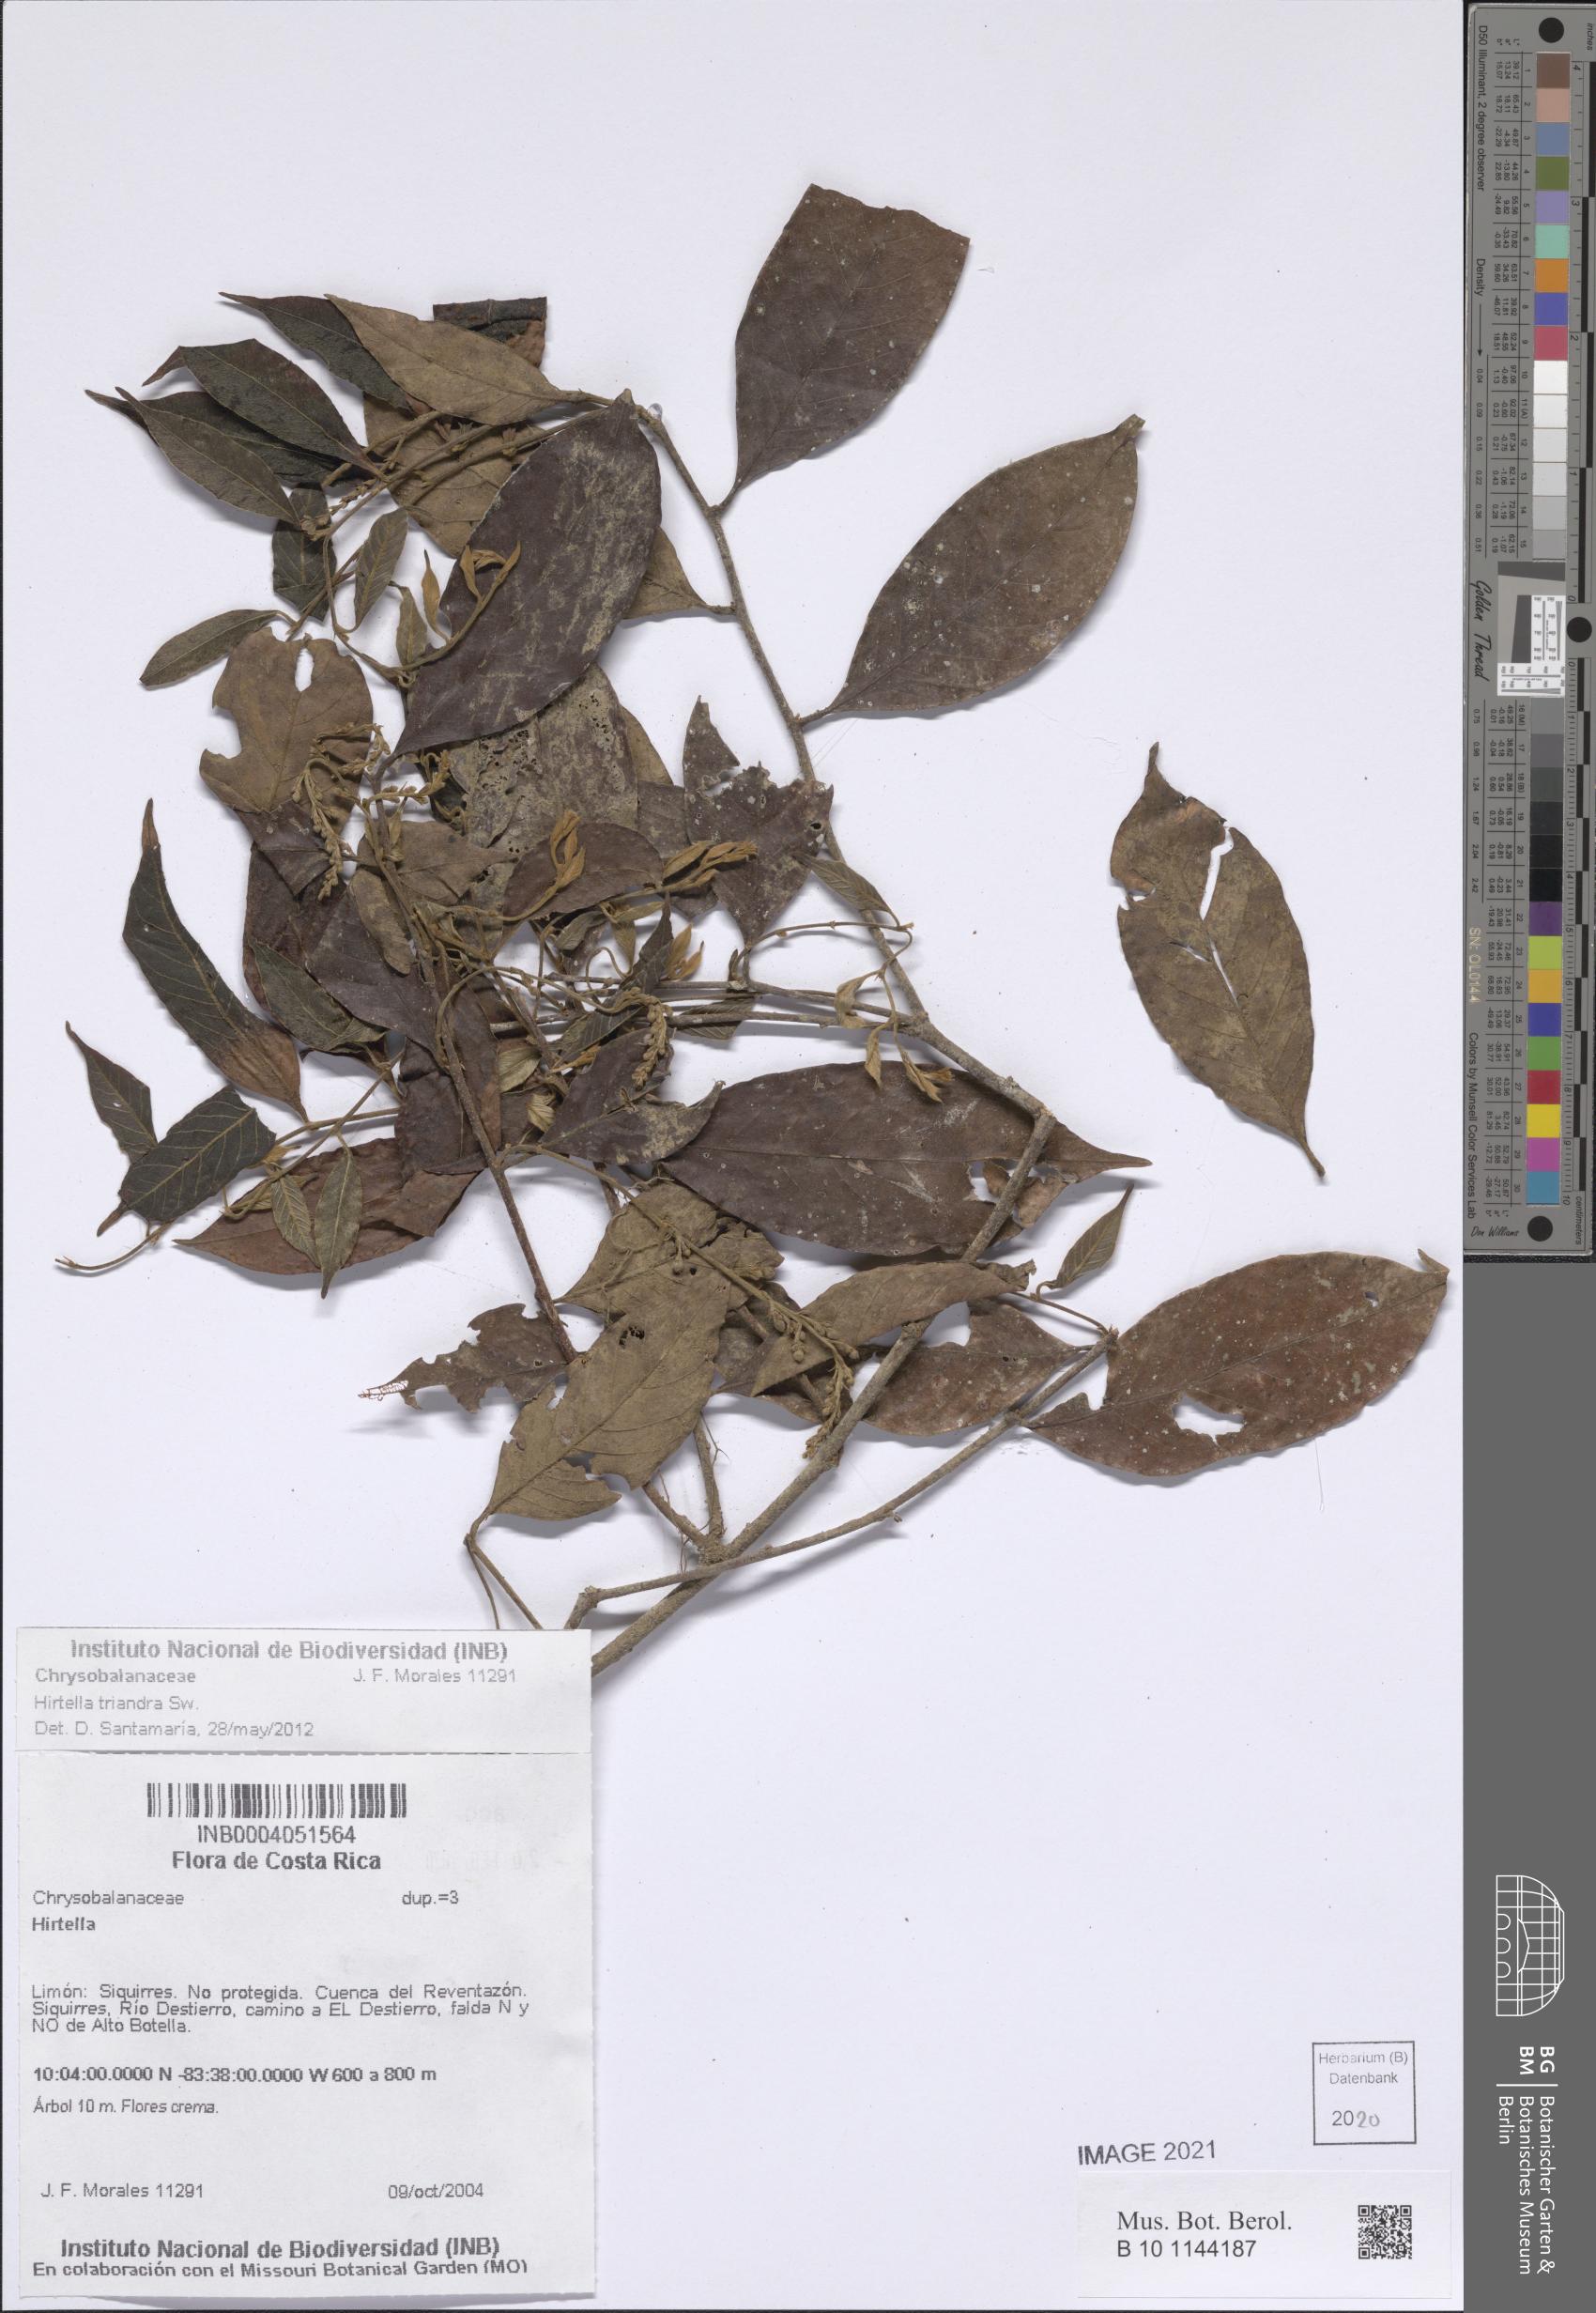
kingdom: Plantae
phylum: Tracheophyta
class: Magnoliopsida
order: Malpighiales
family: Chrysobalanaceae
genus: Hirtella
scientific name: Hirtella triandra
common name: Hairy plum
